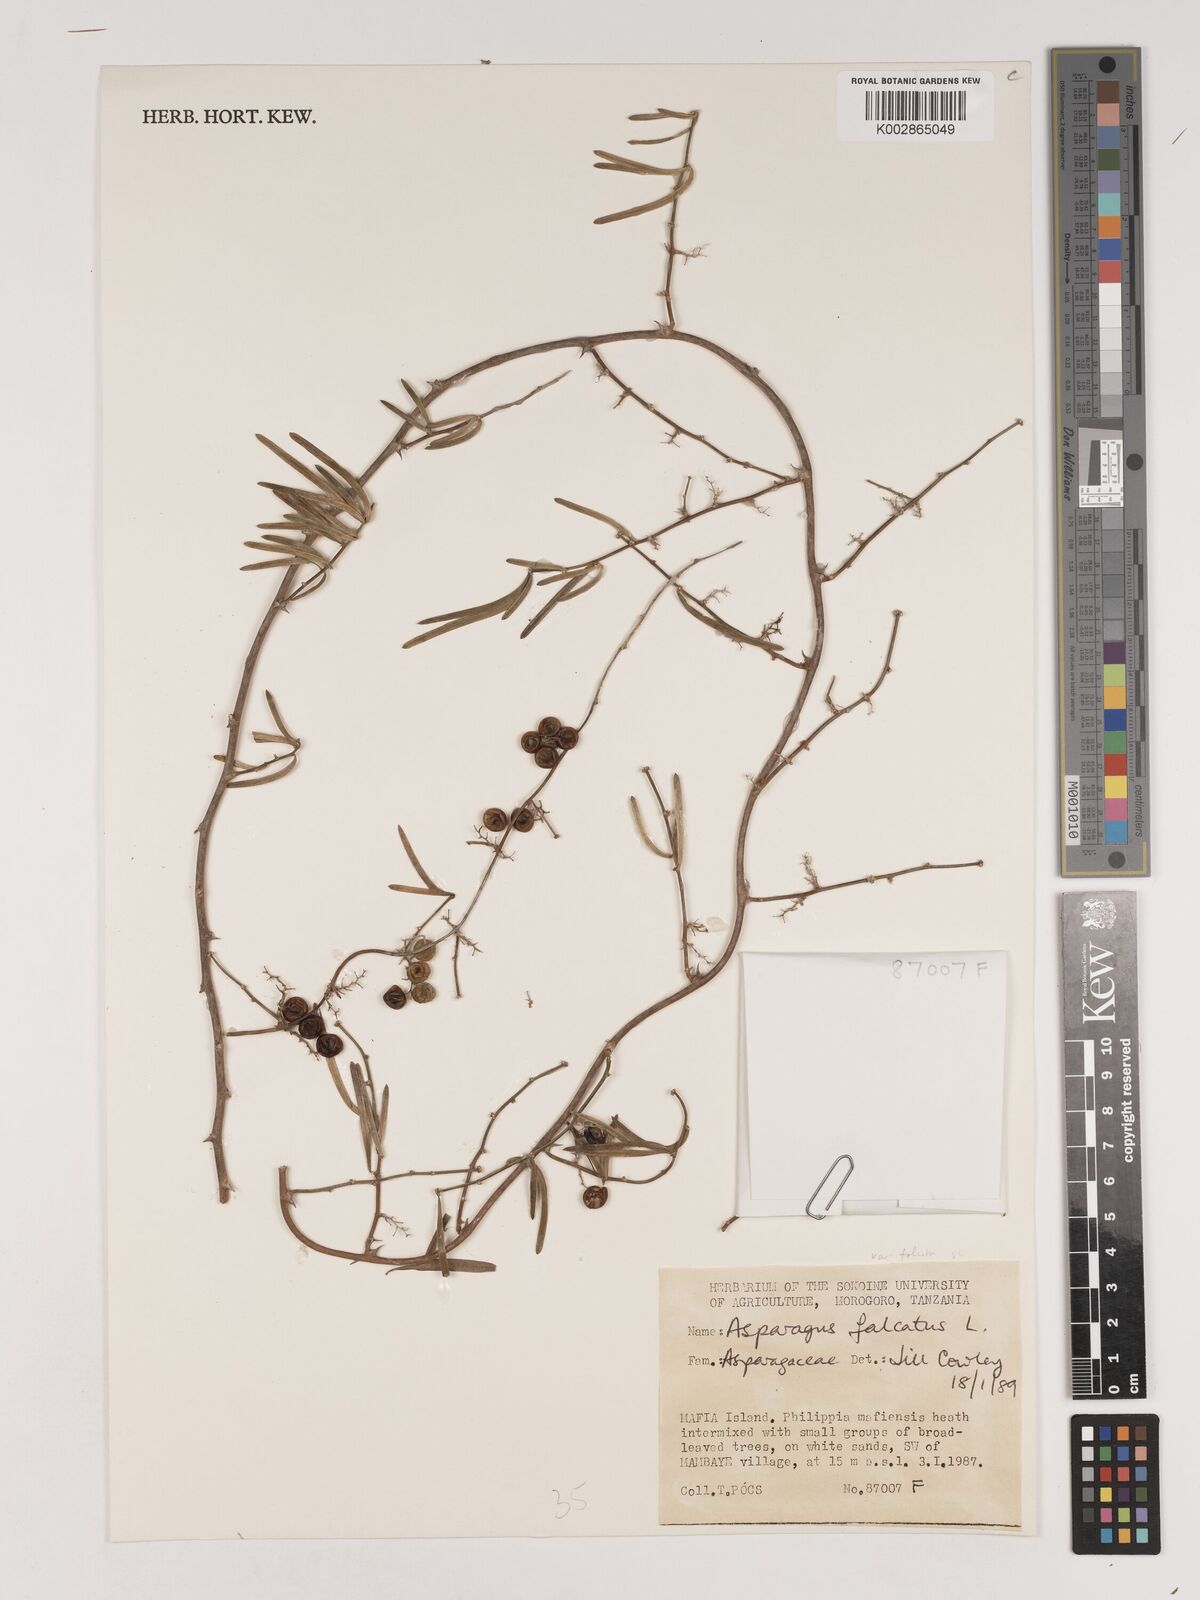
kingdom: Plantae
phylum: Tracheophyta
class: Liliopsida
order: Asparagales
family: Asparagaceae
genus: Asparagus
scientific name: Asparagus falcatus
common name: Asparagus
